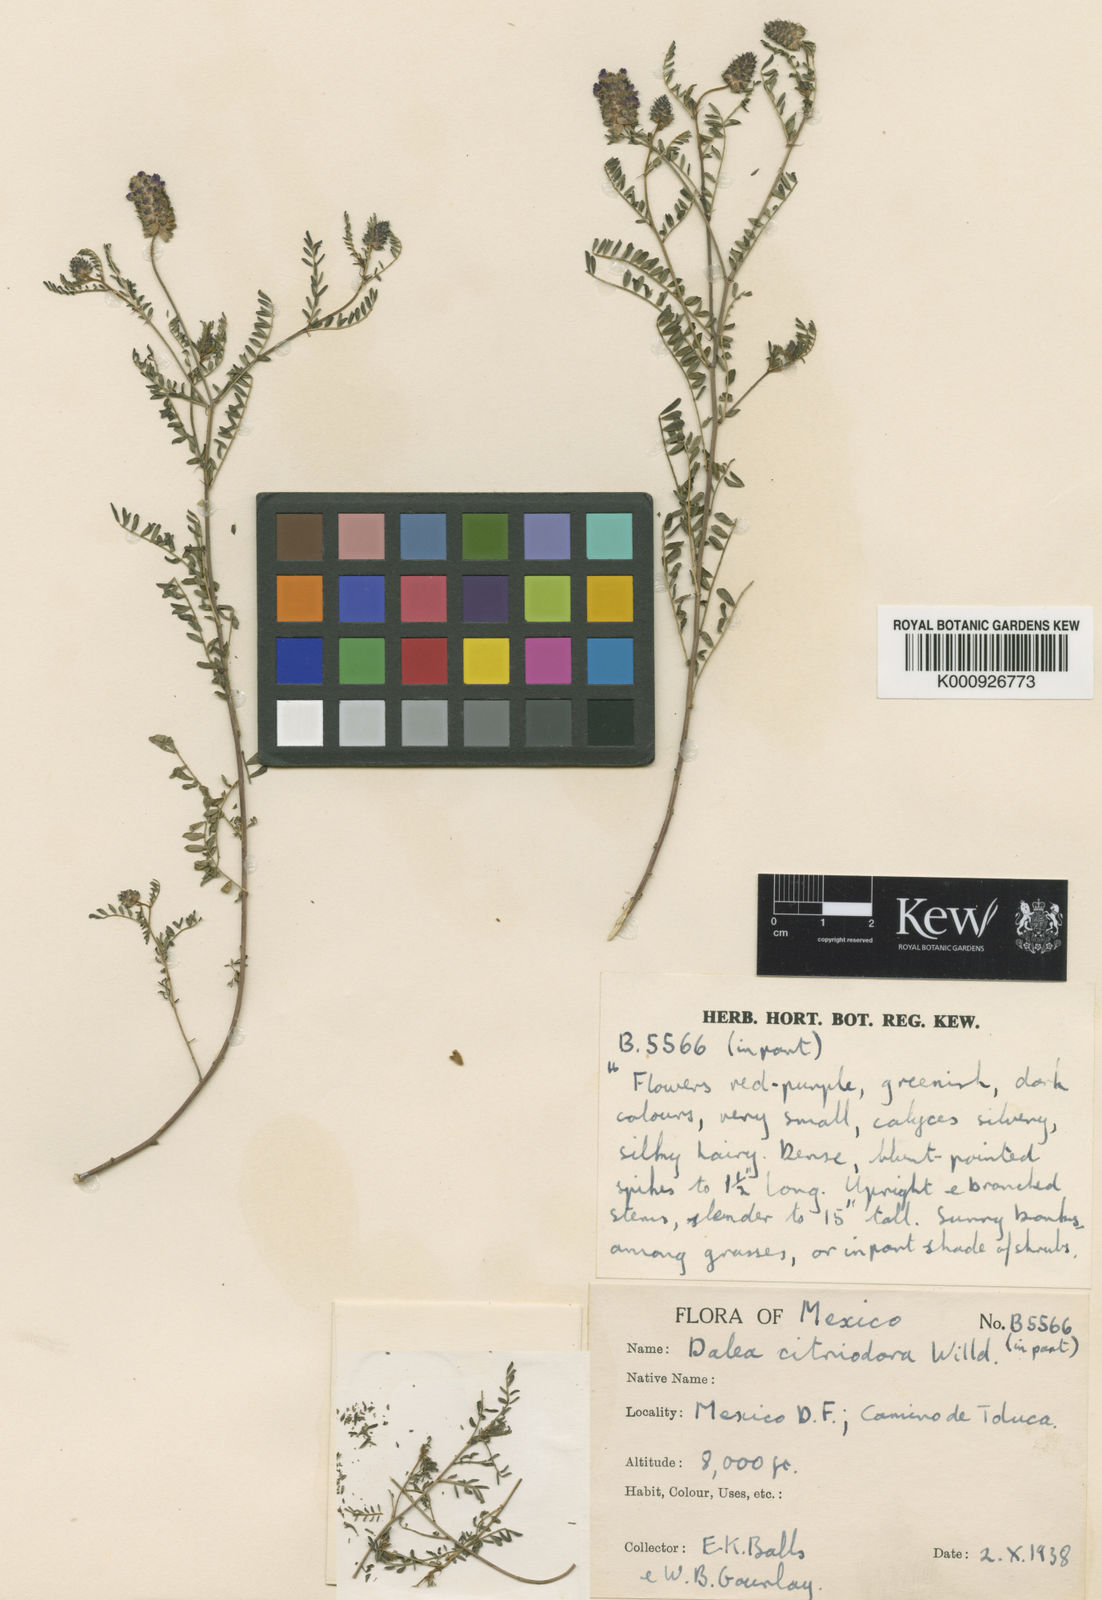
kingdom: Plantae
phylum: Tracheophyta
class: Magnoliopsida
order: Fabales
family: Fabaceae
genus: Dalea
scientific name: Dalea foliolosa
